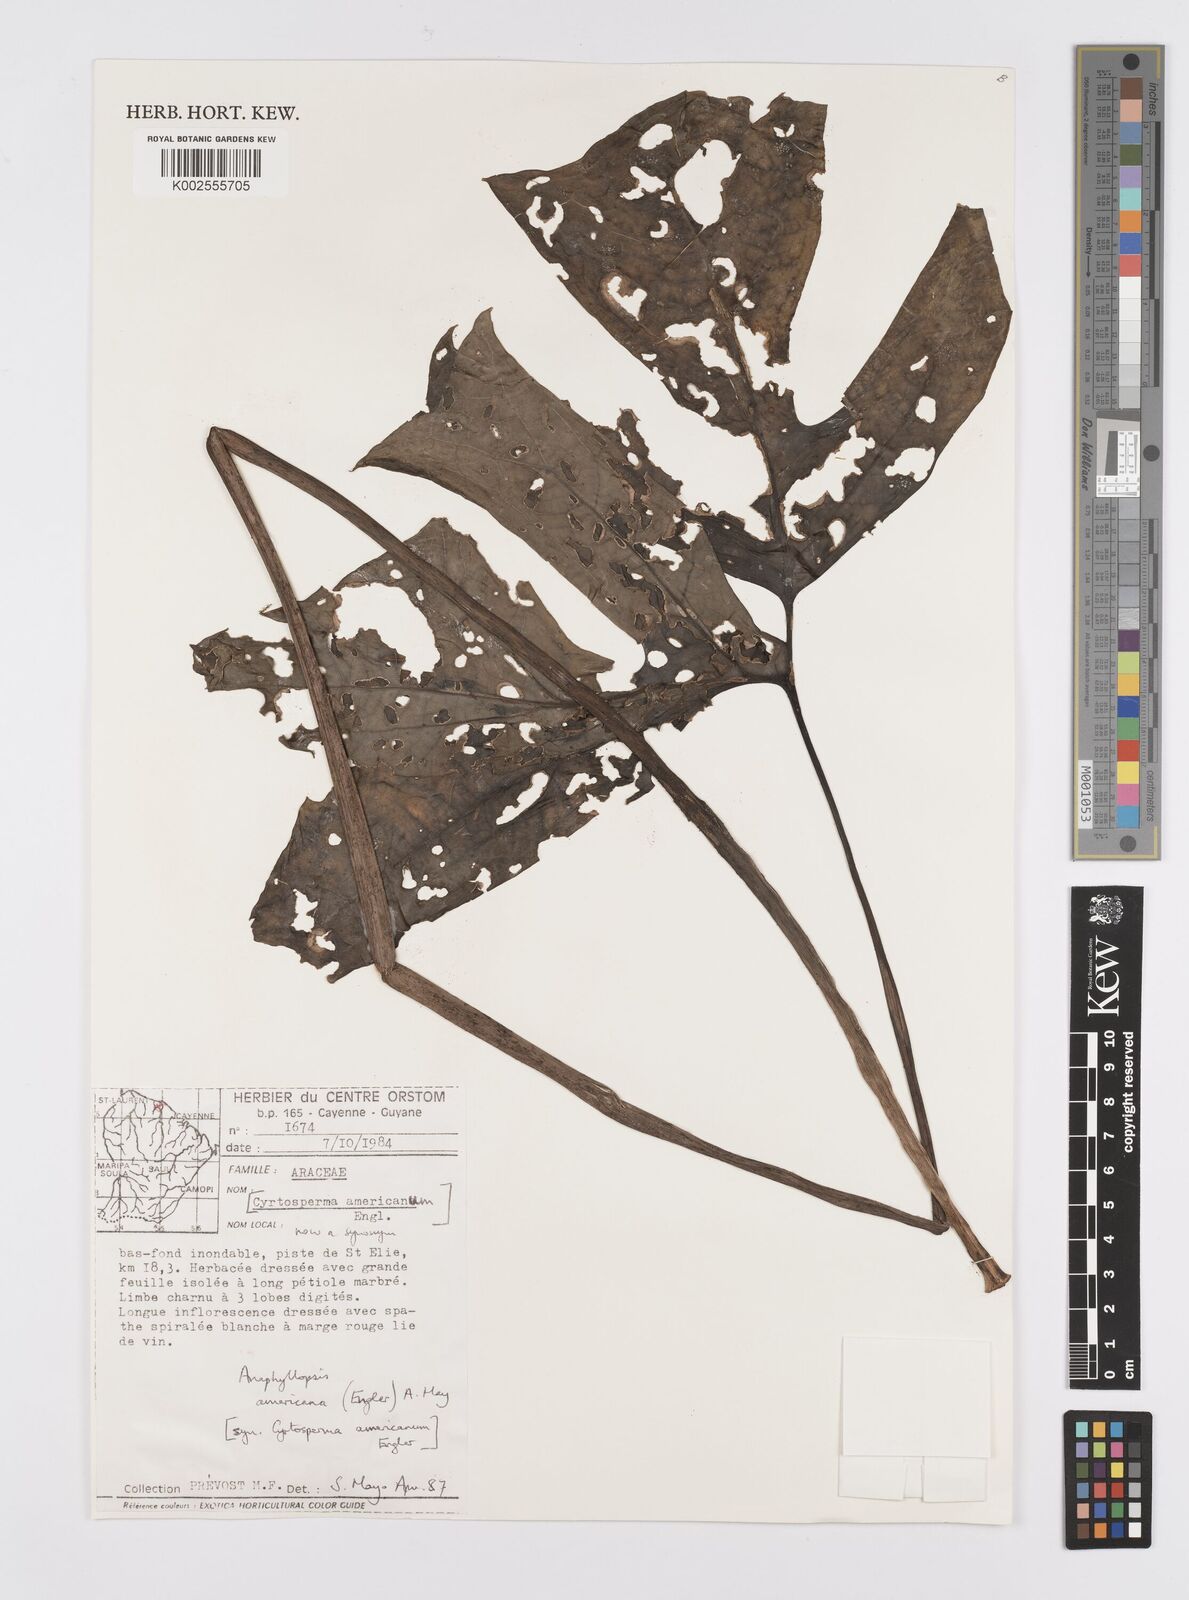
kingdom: Plantae
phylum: Tracheophyta
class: Liliopsida
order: Alismatales
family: Araceae
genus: Anaphyllopsis
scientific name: Anaphyllopsis americana
